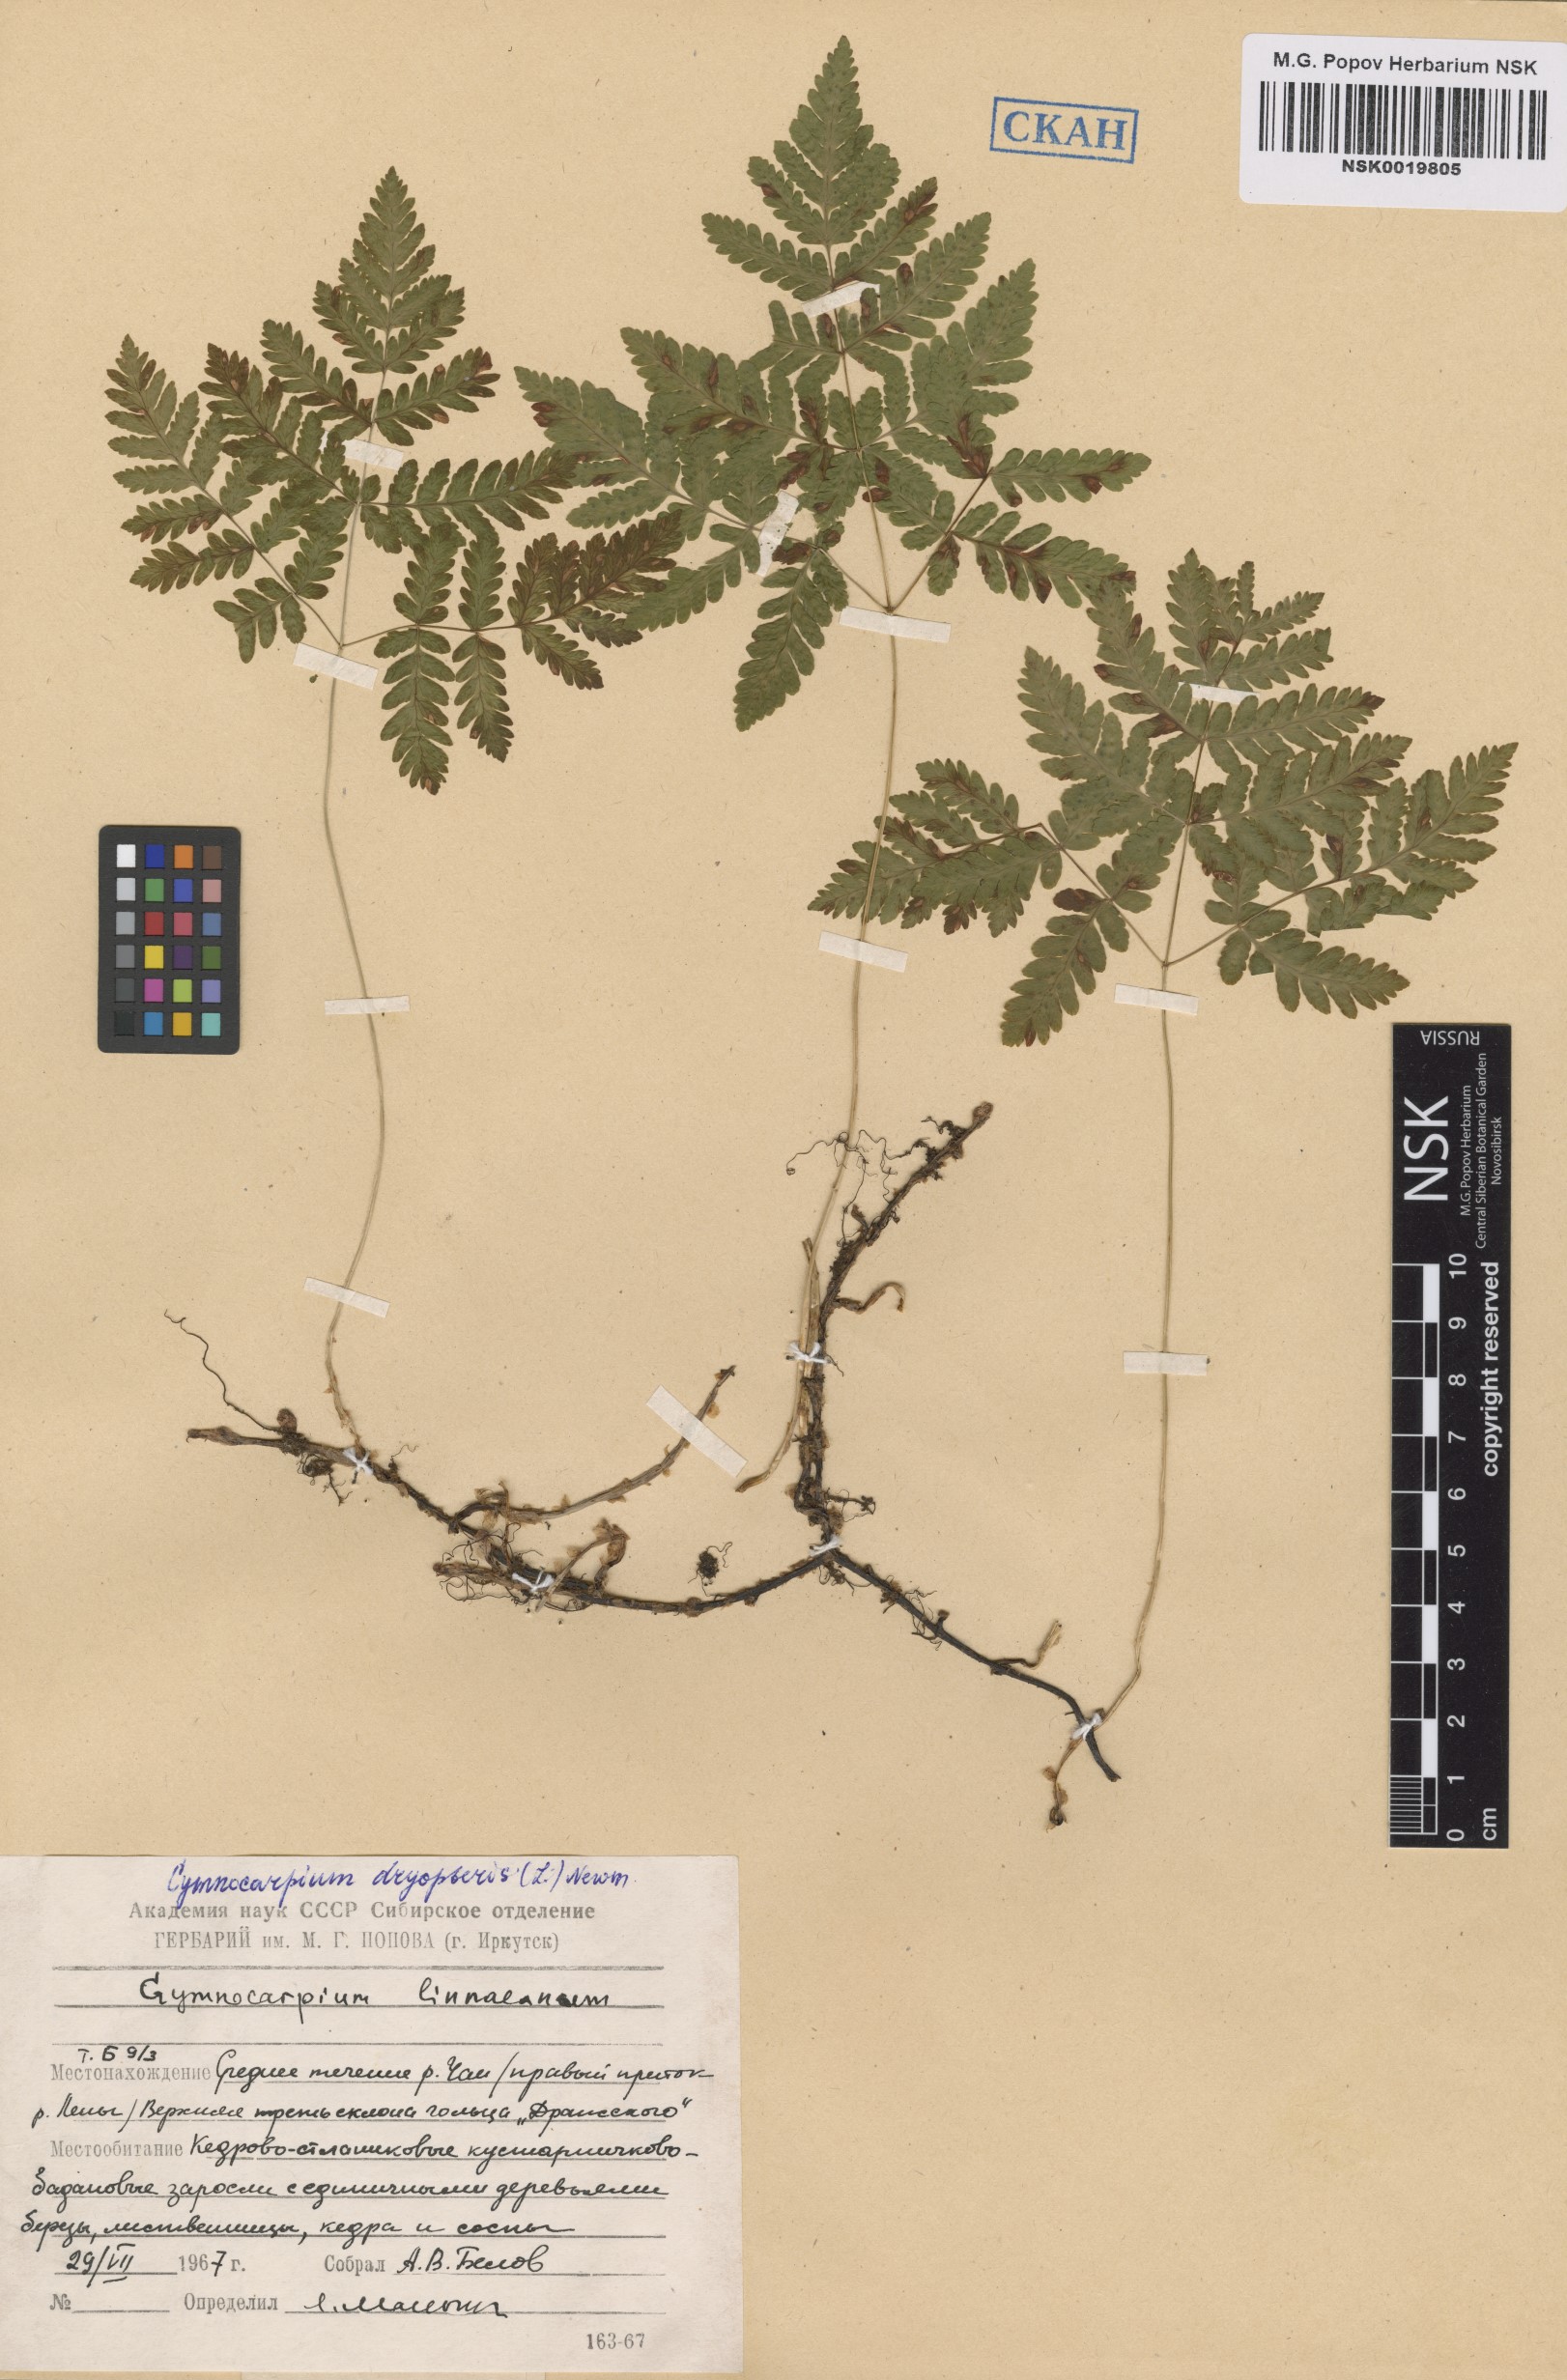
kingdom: Plantae
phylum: Tracheophyta
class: Polypodiopsida
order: Polypodiales
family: Cystopteridaceae
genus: Gymnocarpium
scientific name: Gymnocarpium dryopteris
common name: Oak fern
